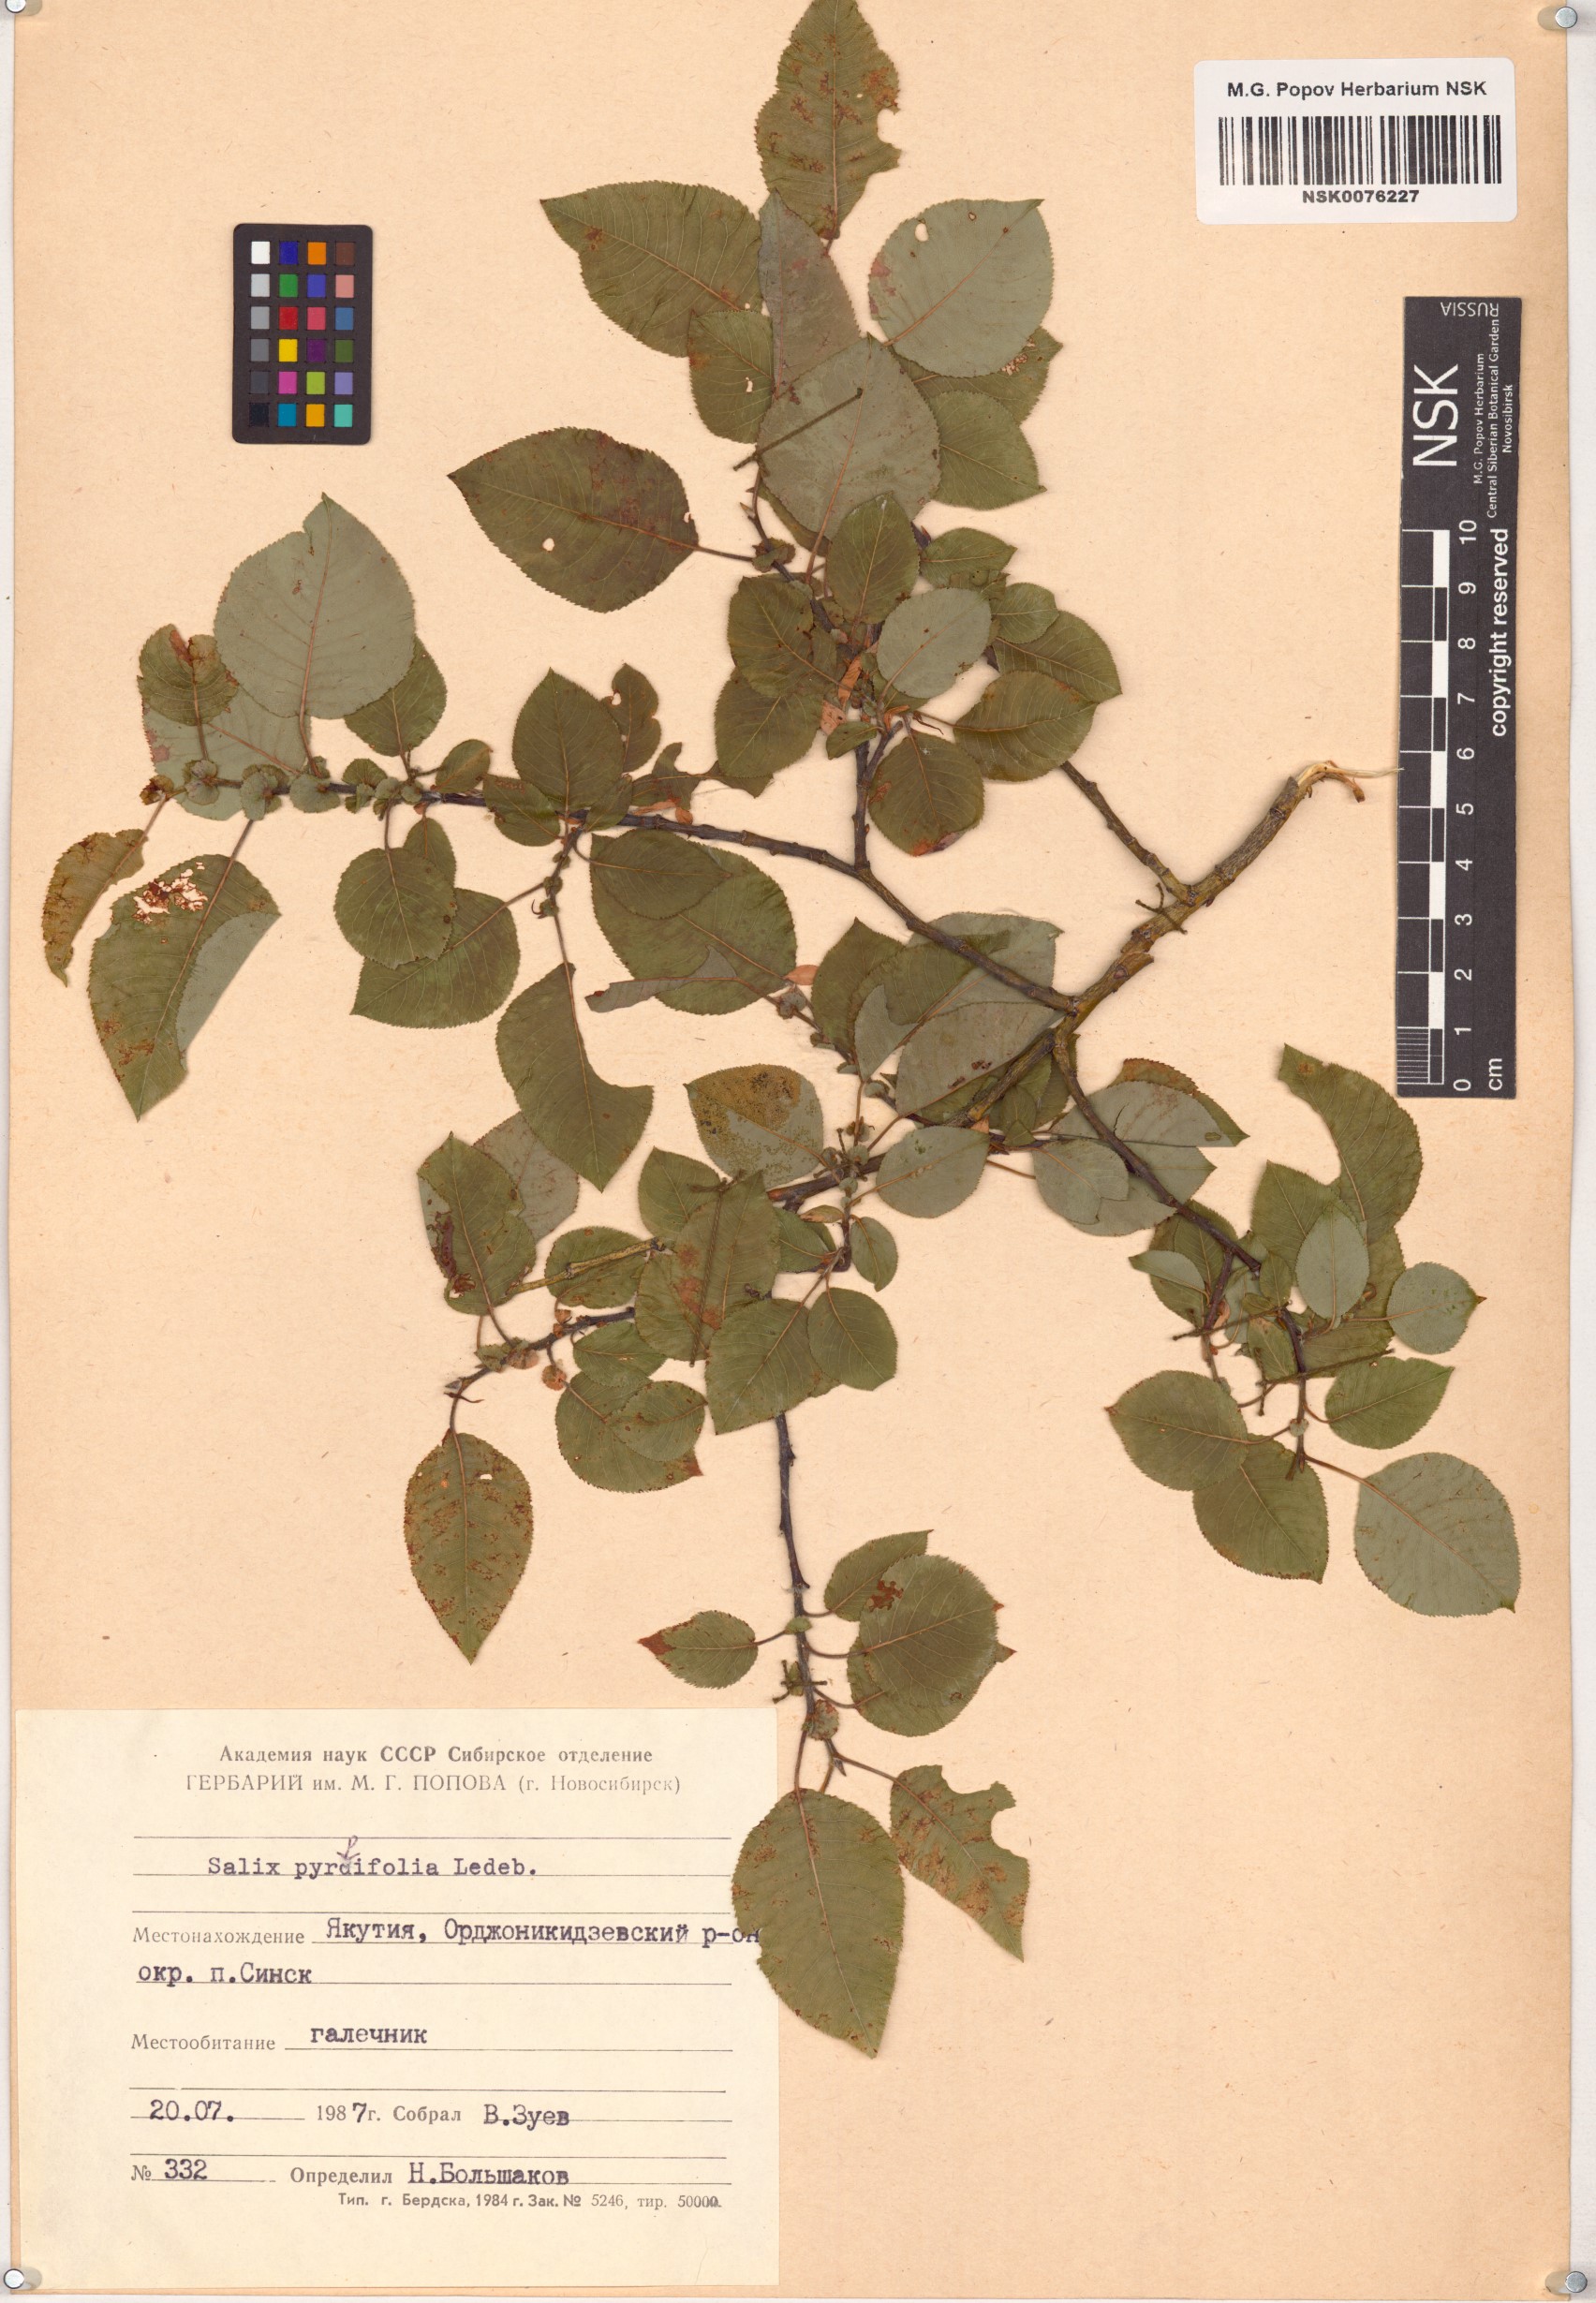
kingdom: Plantae
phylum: Tracheophyta
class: Magnoliopsida
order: Malpighiales
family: Salicaceae
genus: Salix
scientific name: Salix pyrolifolia
